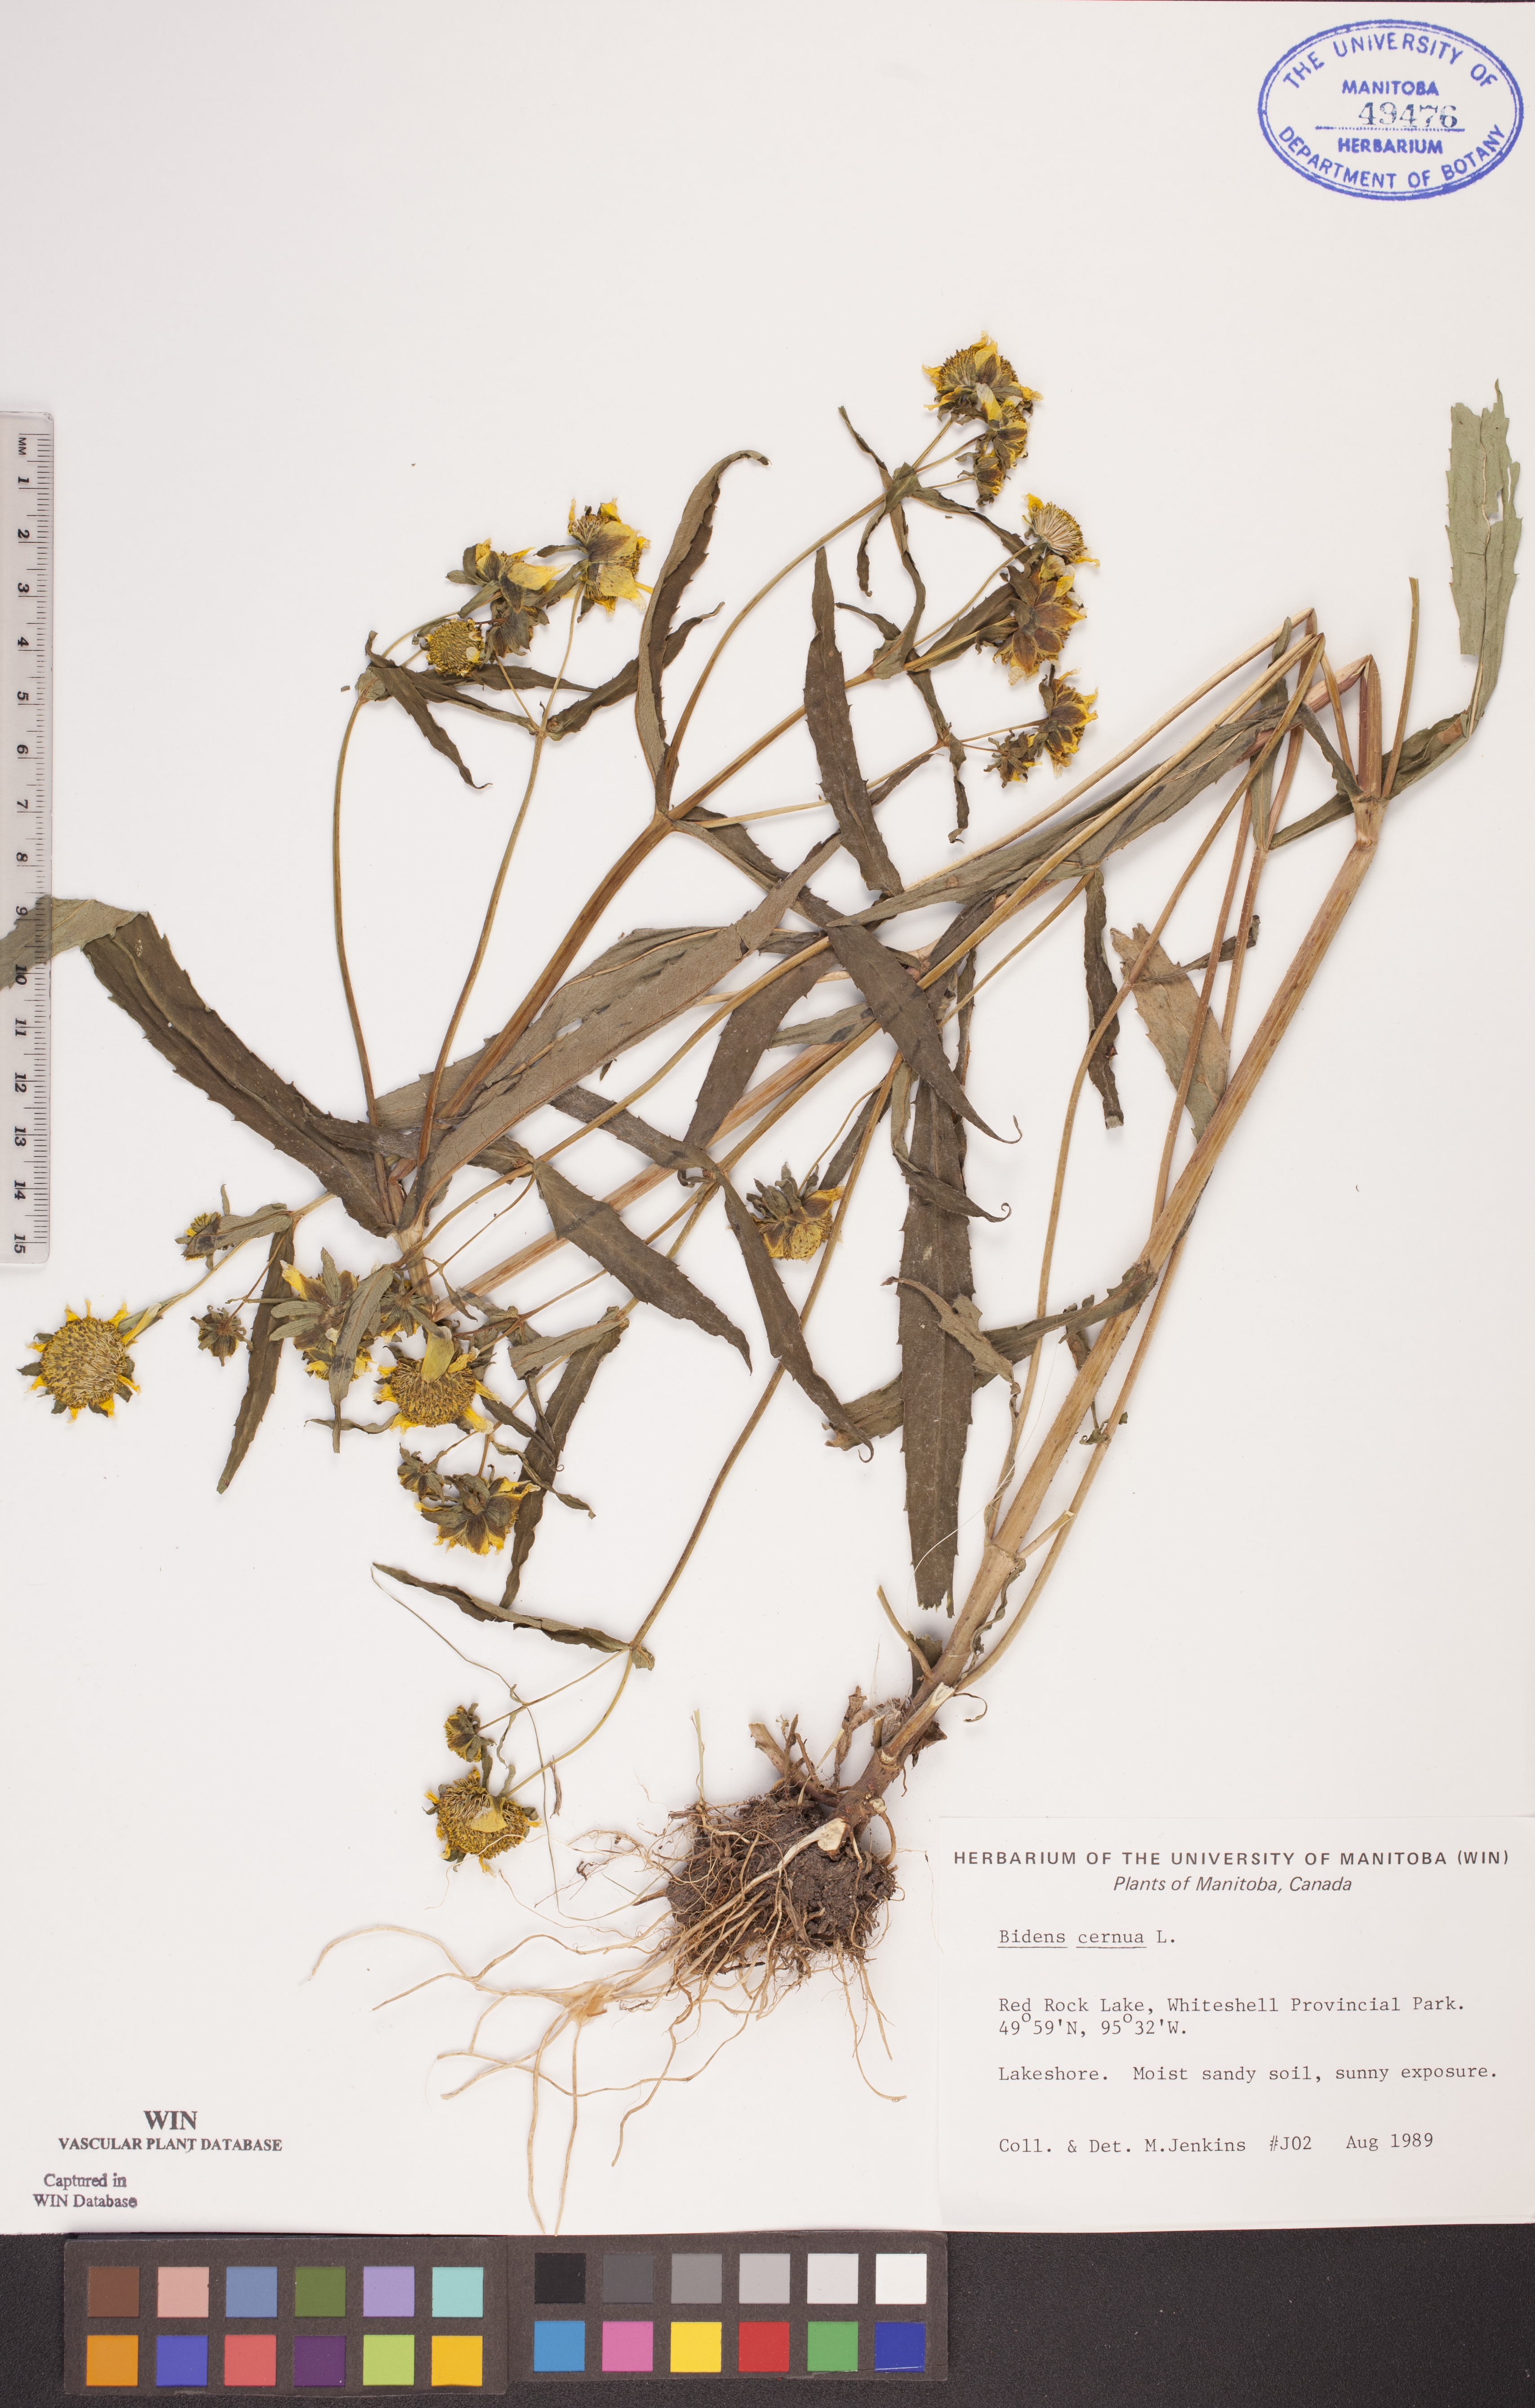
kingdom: Plantae
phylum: Tracheophyta
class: Magnoliopsida
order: Asterales
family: Asteraceae
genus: Bidens
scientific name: Bidens cernua
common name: Nodding bur-marigold
